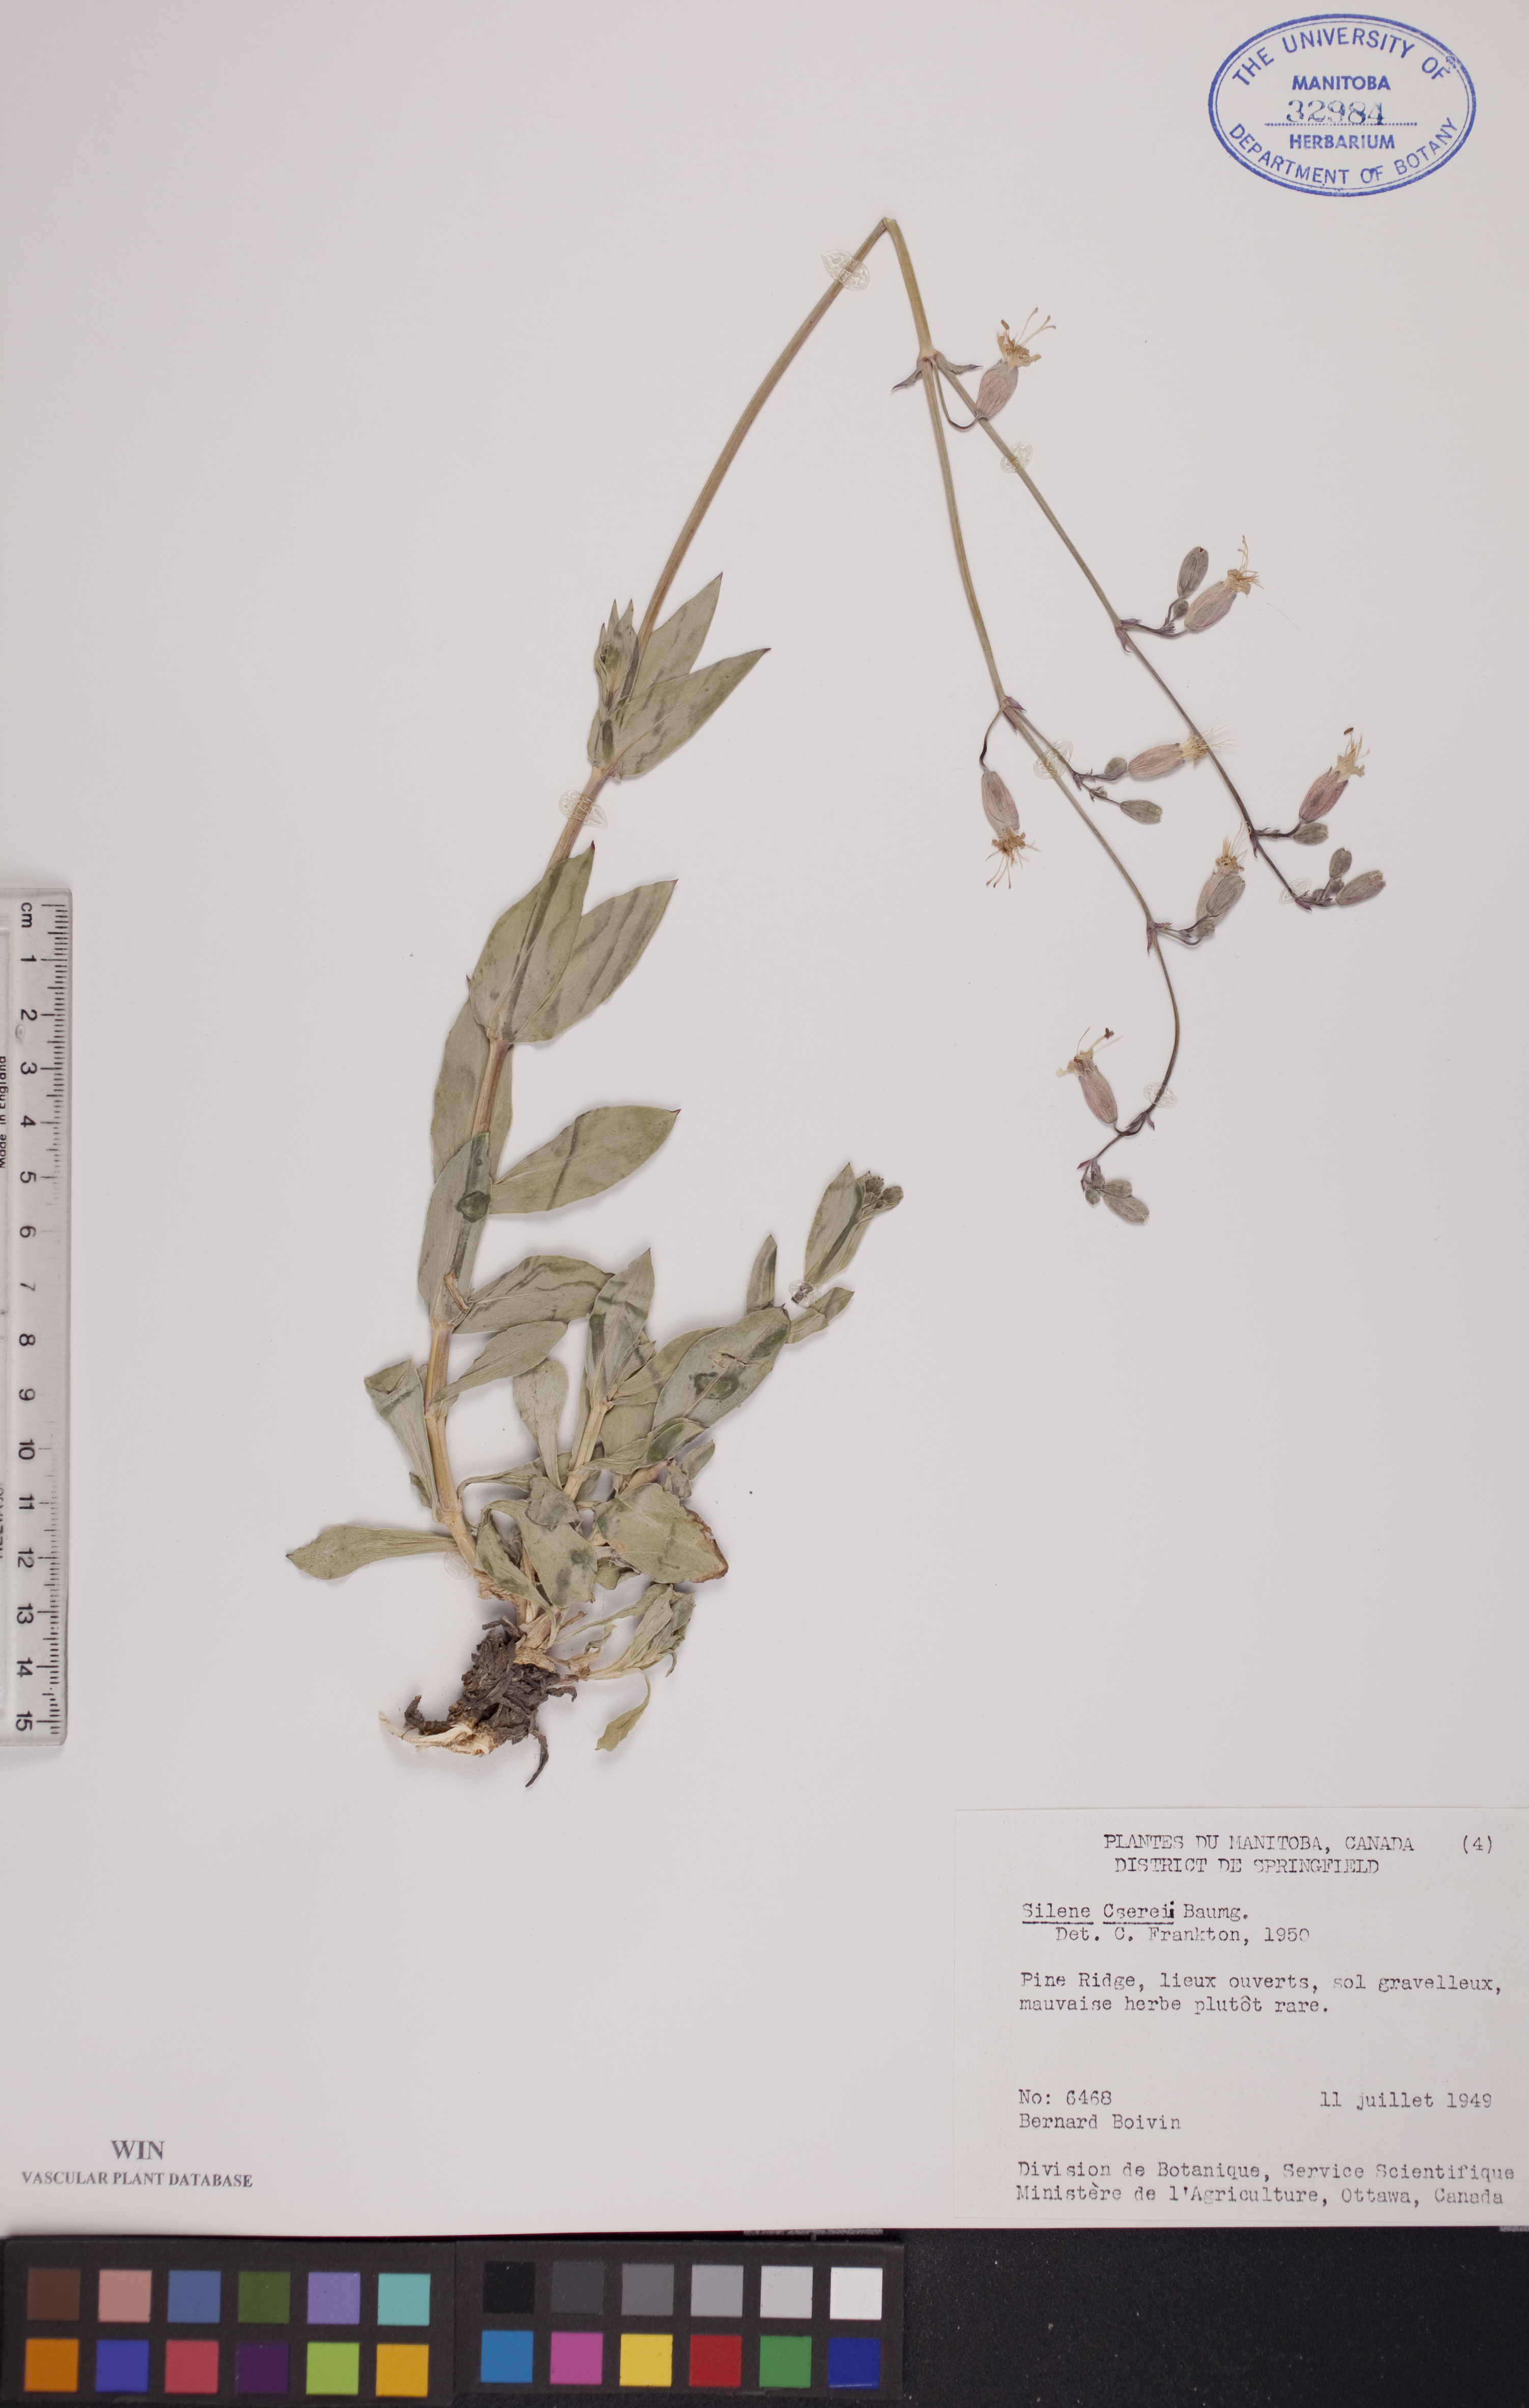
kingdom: Plantae
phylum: Tracheophyta
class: Magnoliopsida
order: Caryophyllales
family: Caryophyllaceae
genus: Silene
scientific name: Silene csereii
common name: Balkan catchfly
